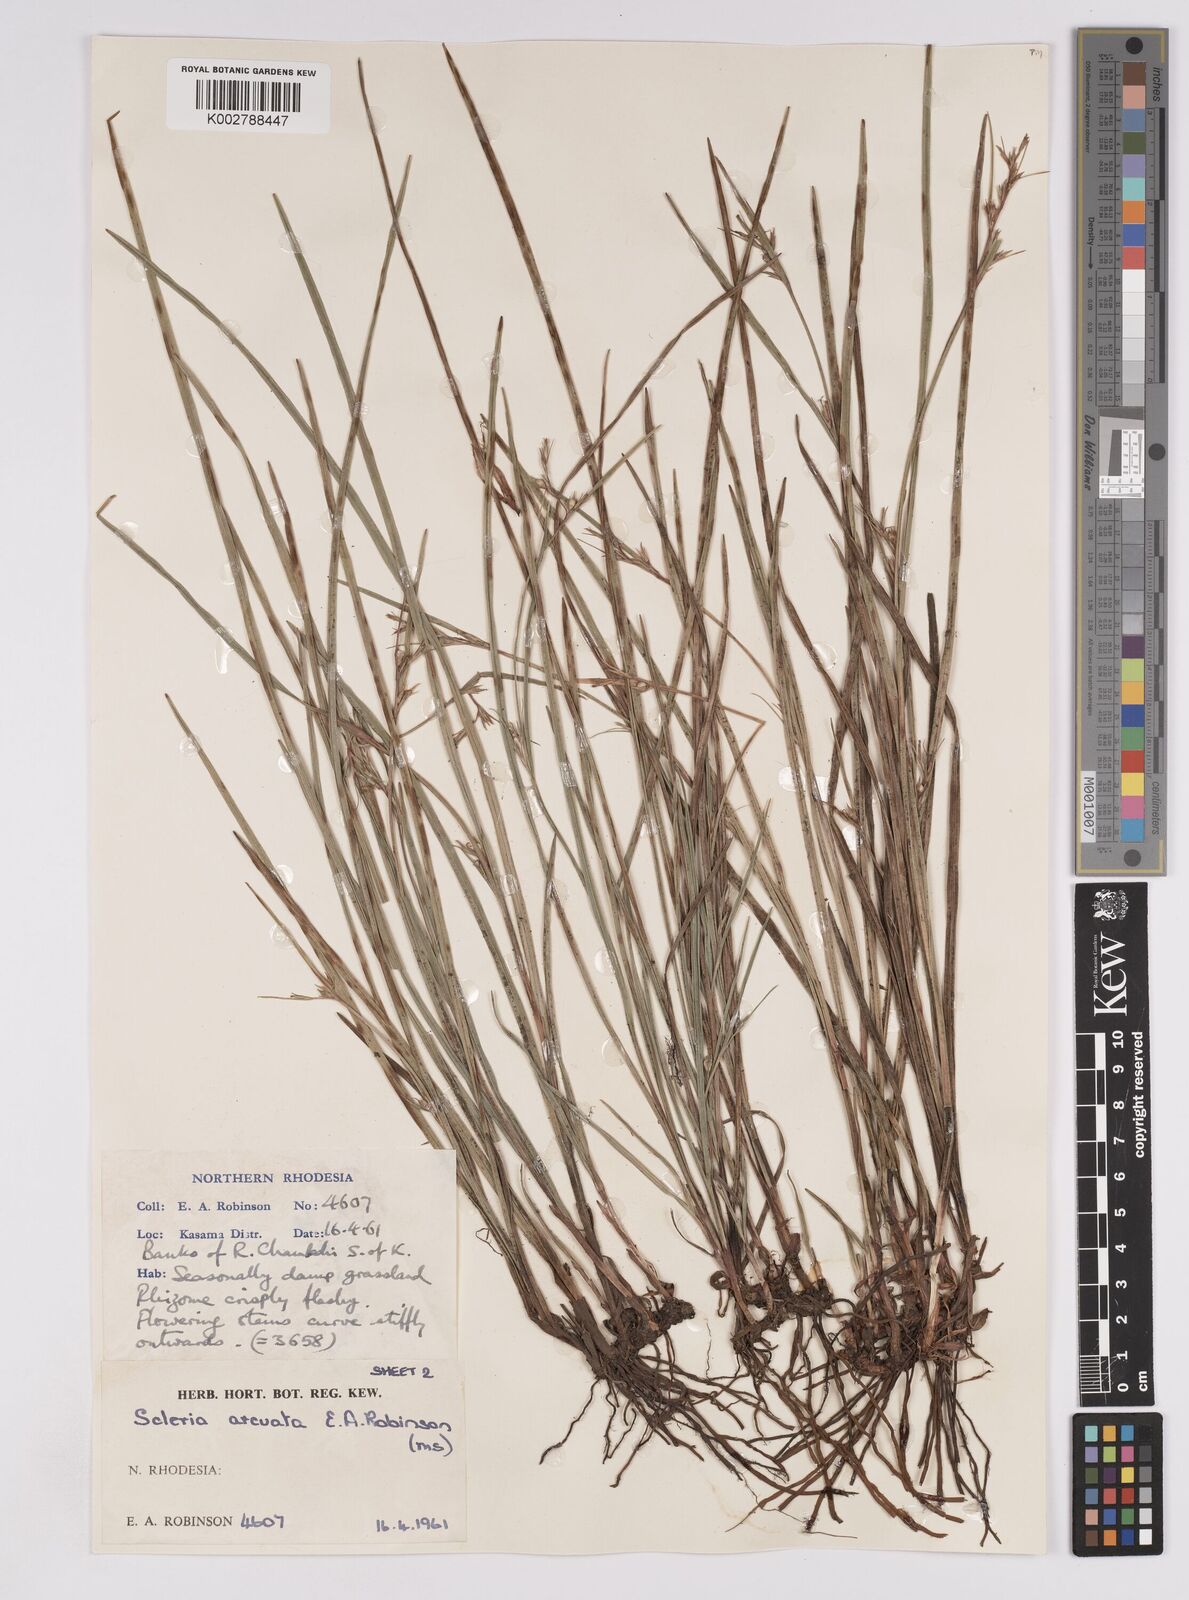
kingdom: Plantae
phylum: Tracheophyta
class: Liliopsida
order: Poales
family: Cyperaceae
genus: Scleria
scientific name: Scleria arcuata
